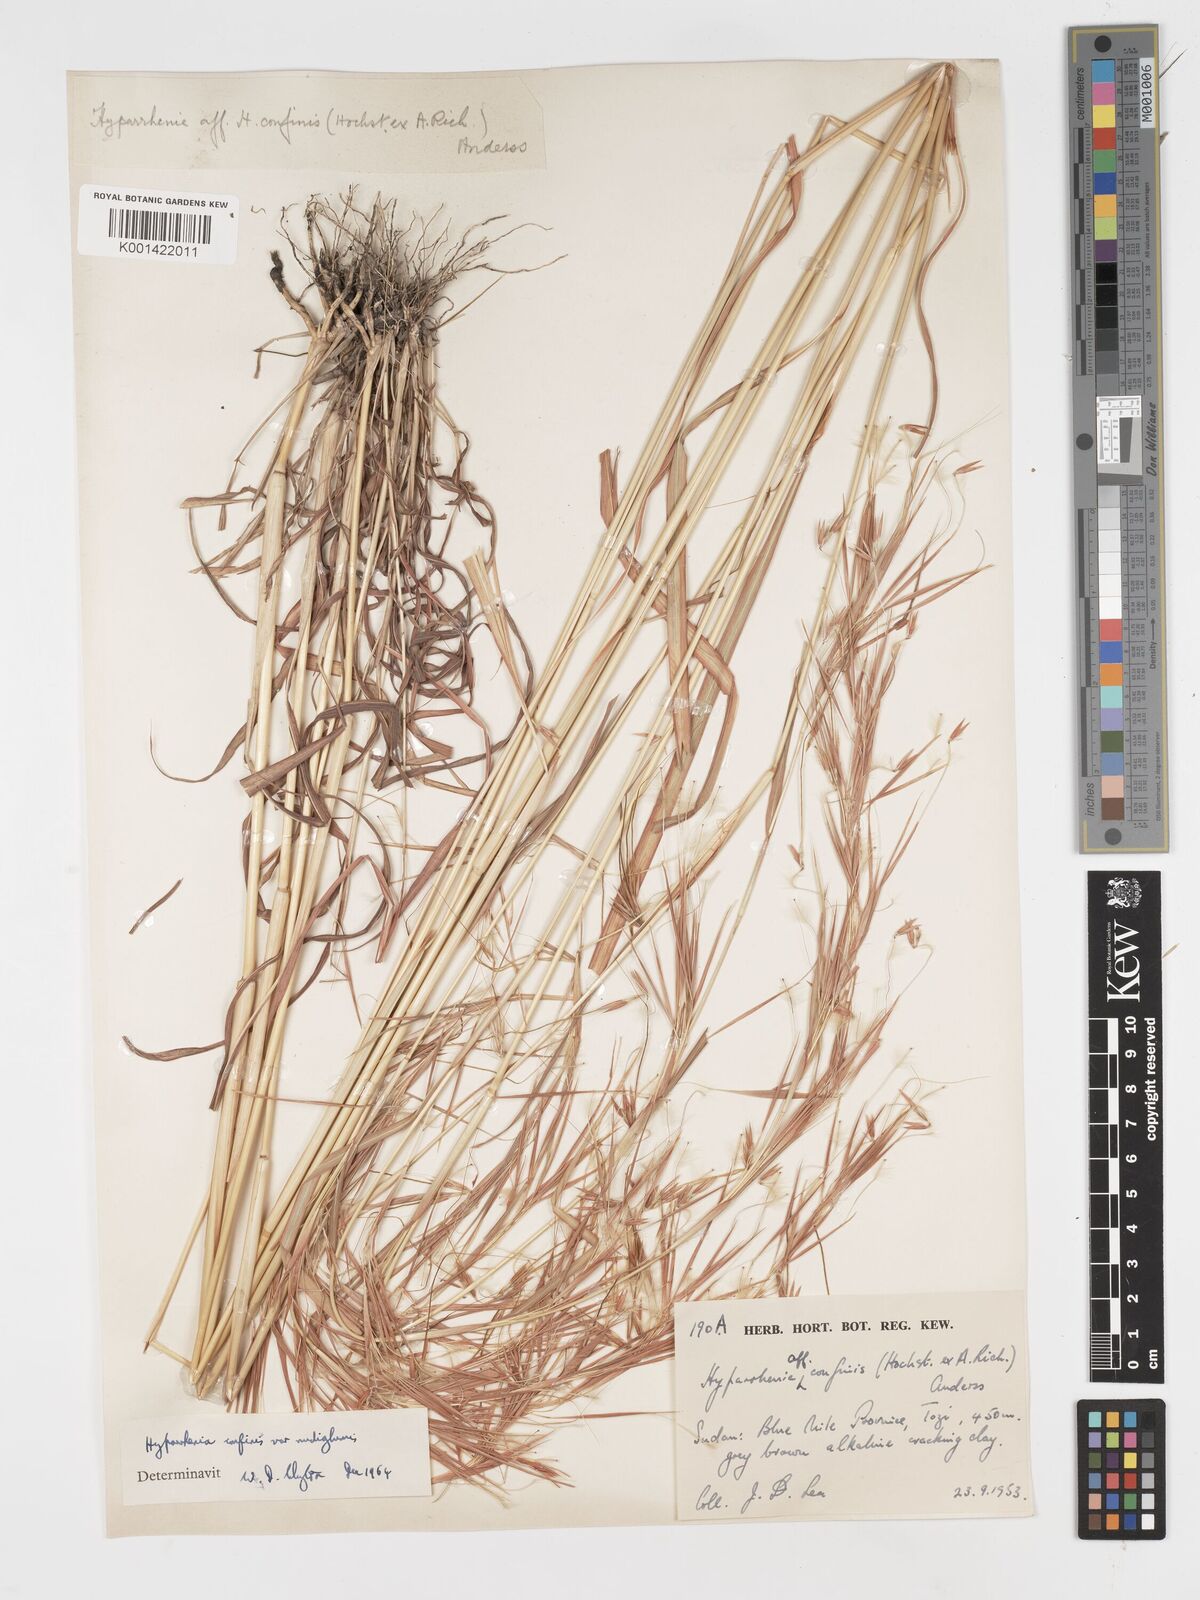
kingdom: Plantae
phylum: Tracheophyta
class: Liliopsida
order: Poales
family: Poaceae
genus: Hyparrhenia
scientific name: Hyparrhenia confinis
